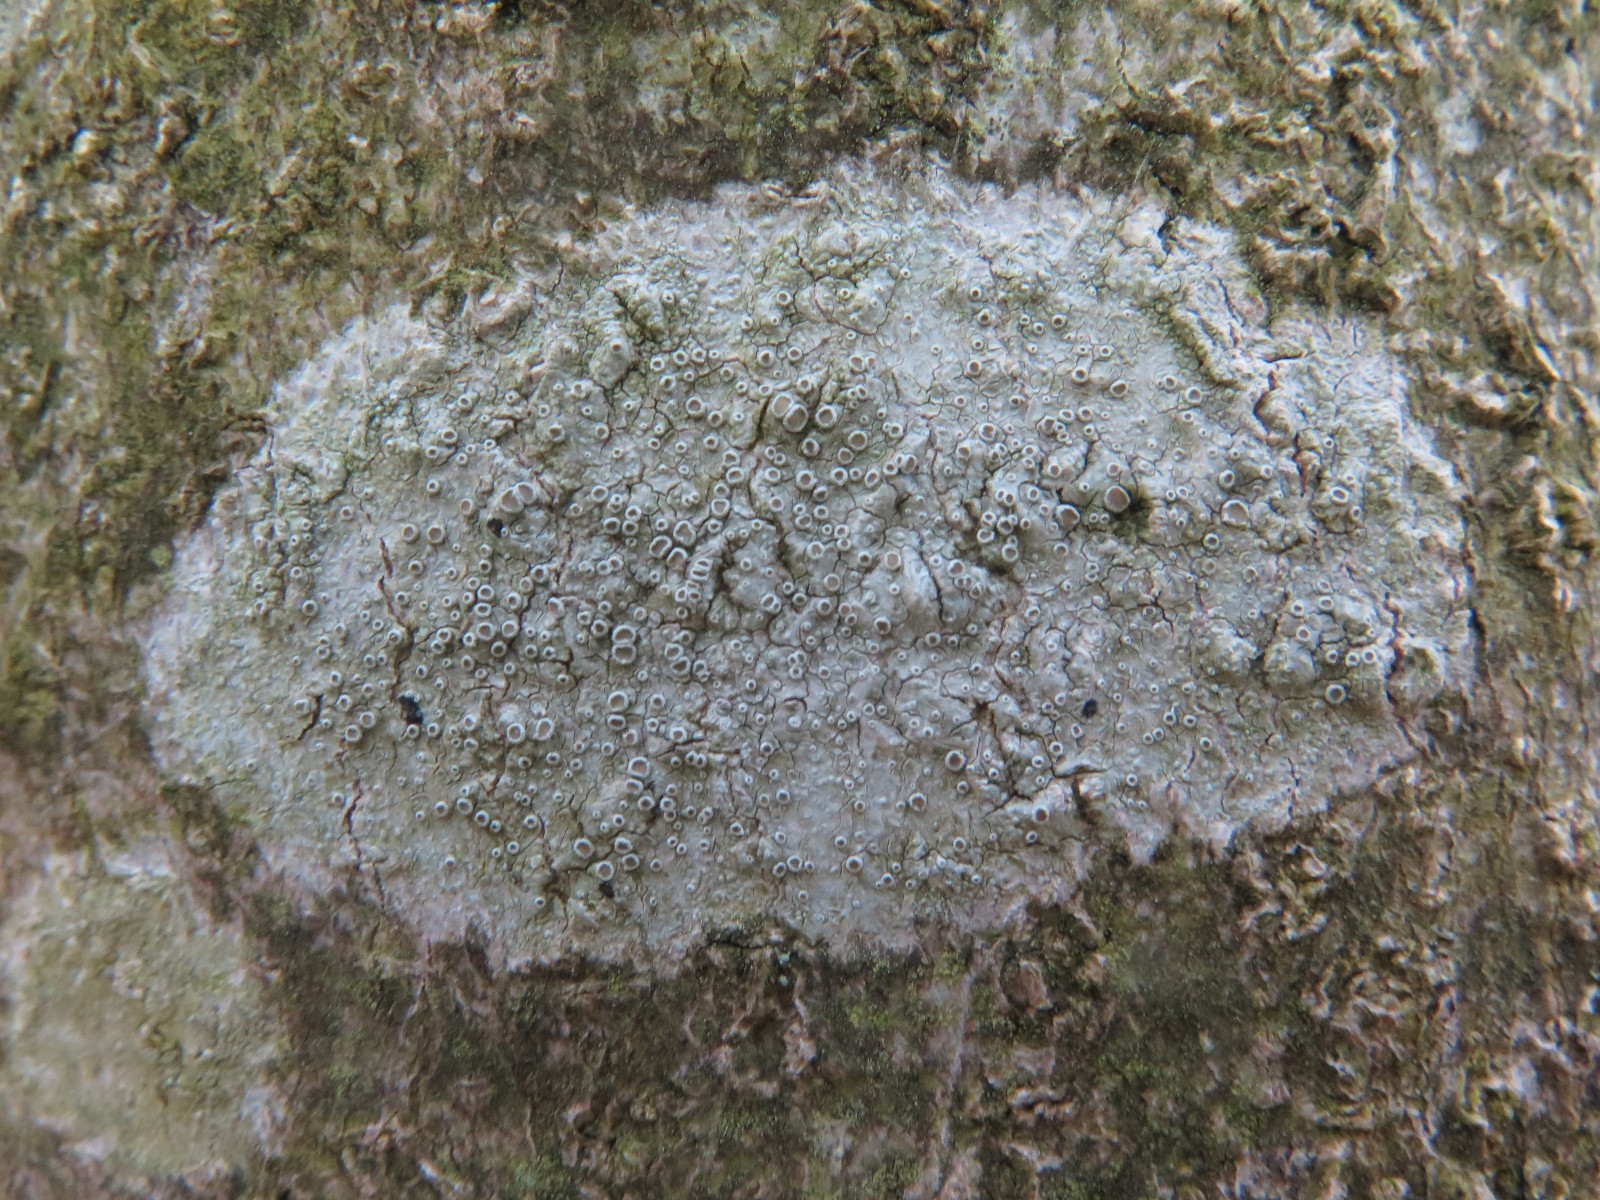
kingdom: Fungi
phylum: Ascomycota
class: Lecanoromycetes
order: Lecanorales
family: Lecanoraceae
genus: Lecanora
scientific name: Lecanora chlarotera
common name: brun kantskivelav
